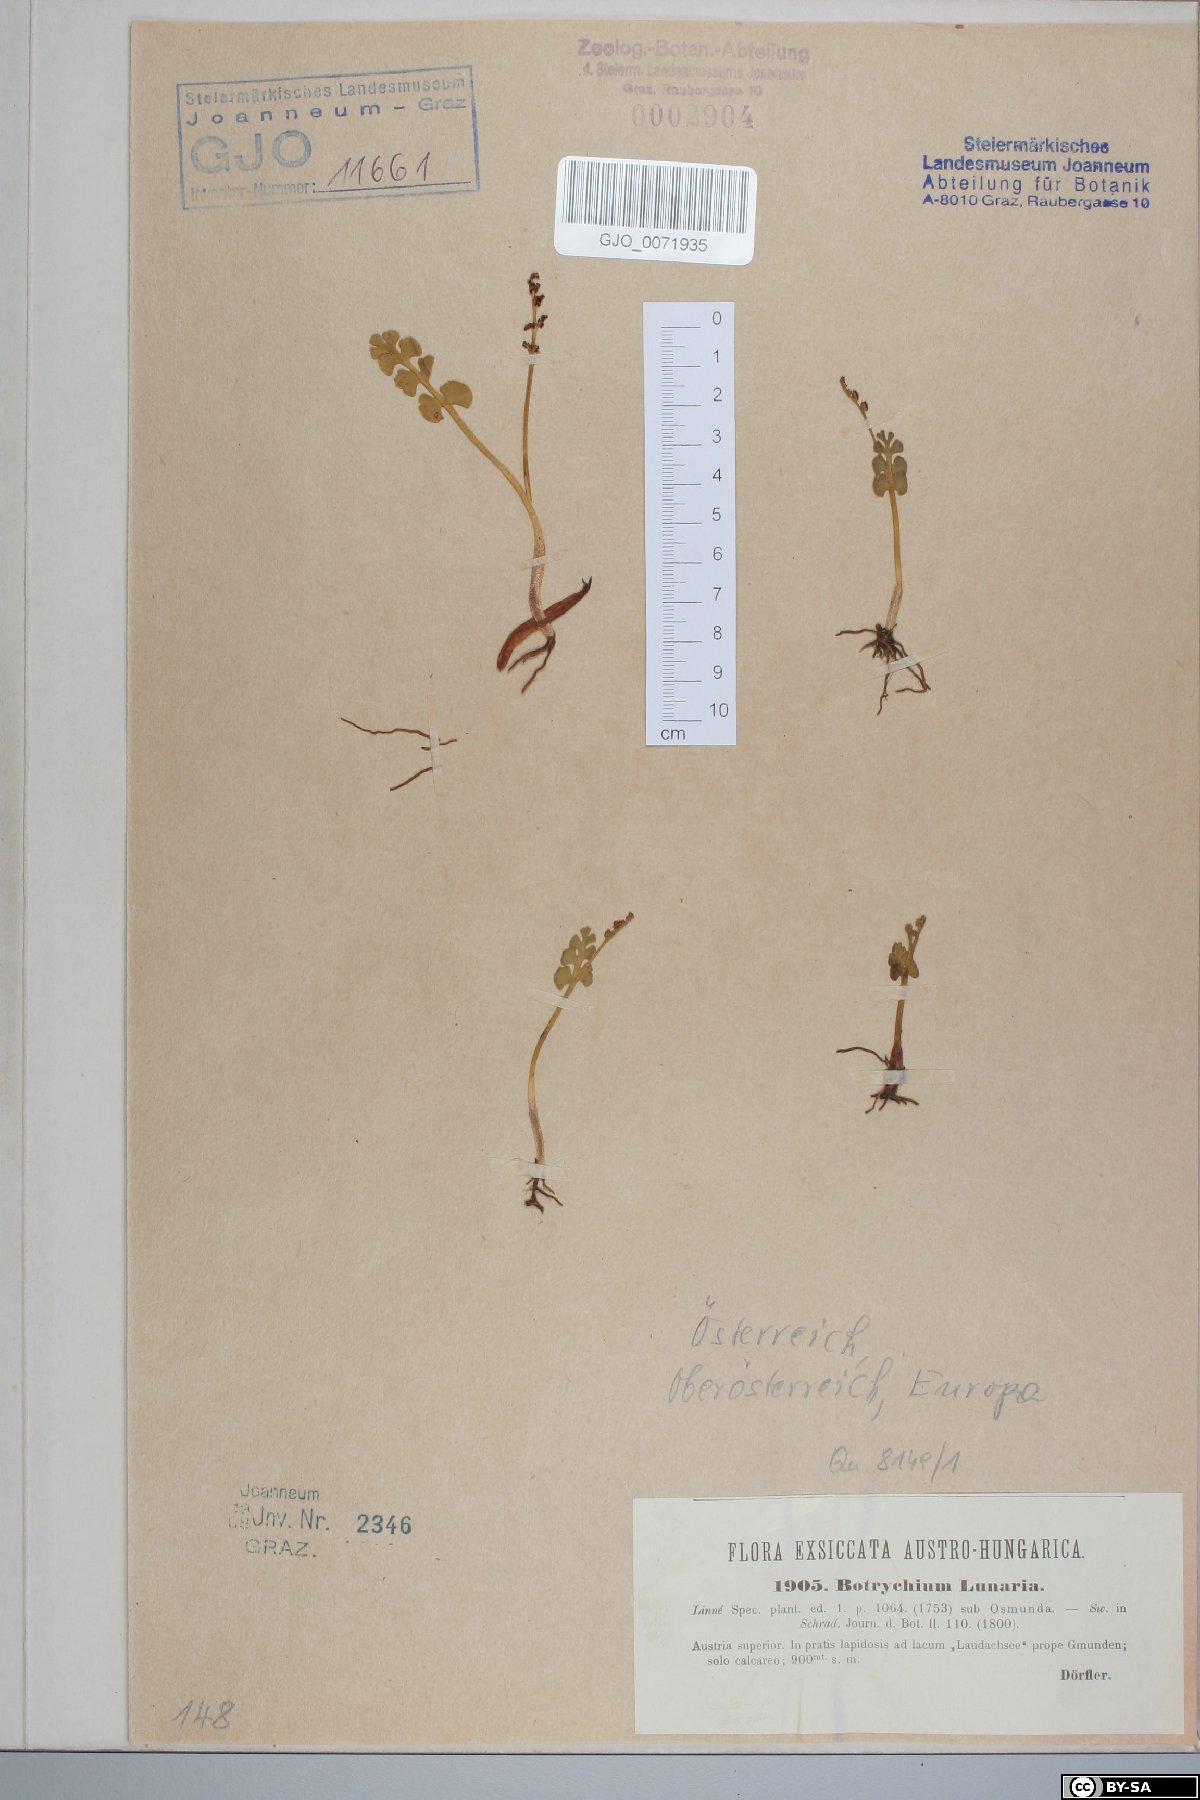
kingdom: Plantae
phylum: Tracheophyta
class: Polypodiopsida
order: Ophioglossales
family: Ophioglossaceae
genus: Botrychium
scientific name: Botrychium lunaria
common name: Moonwort
